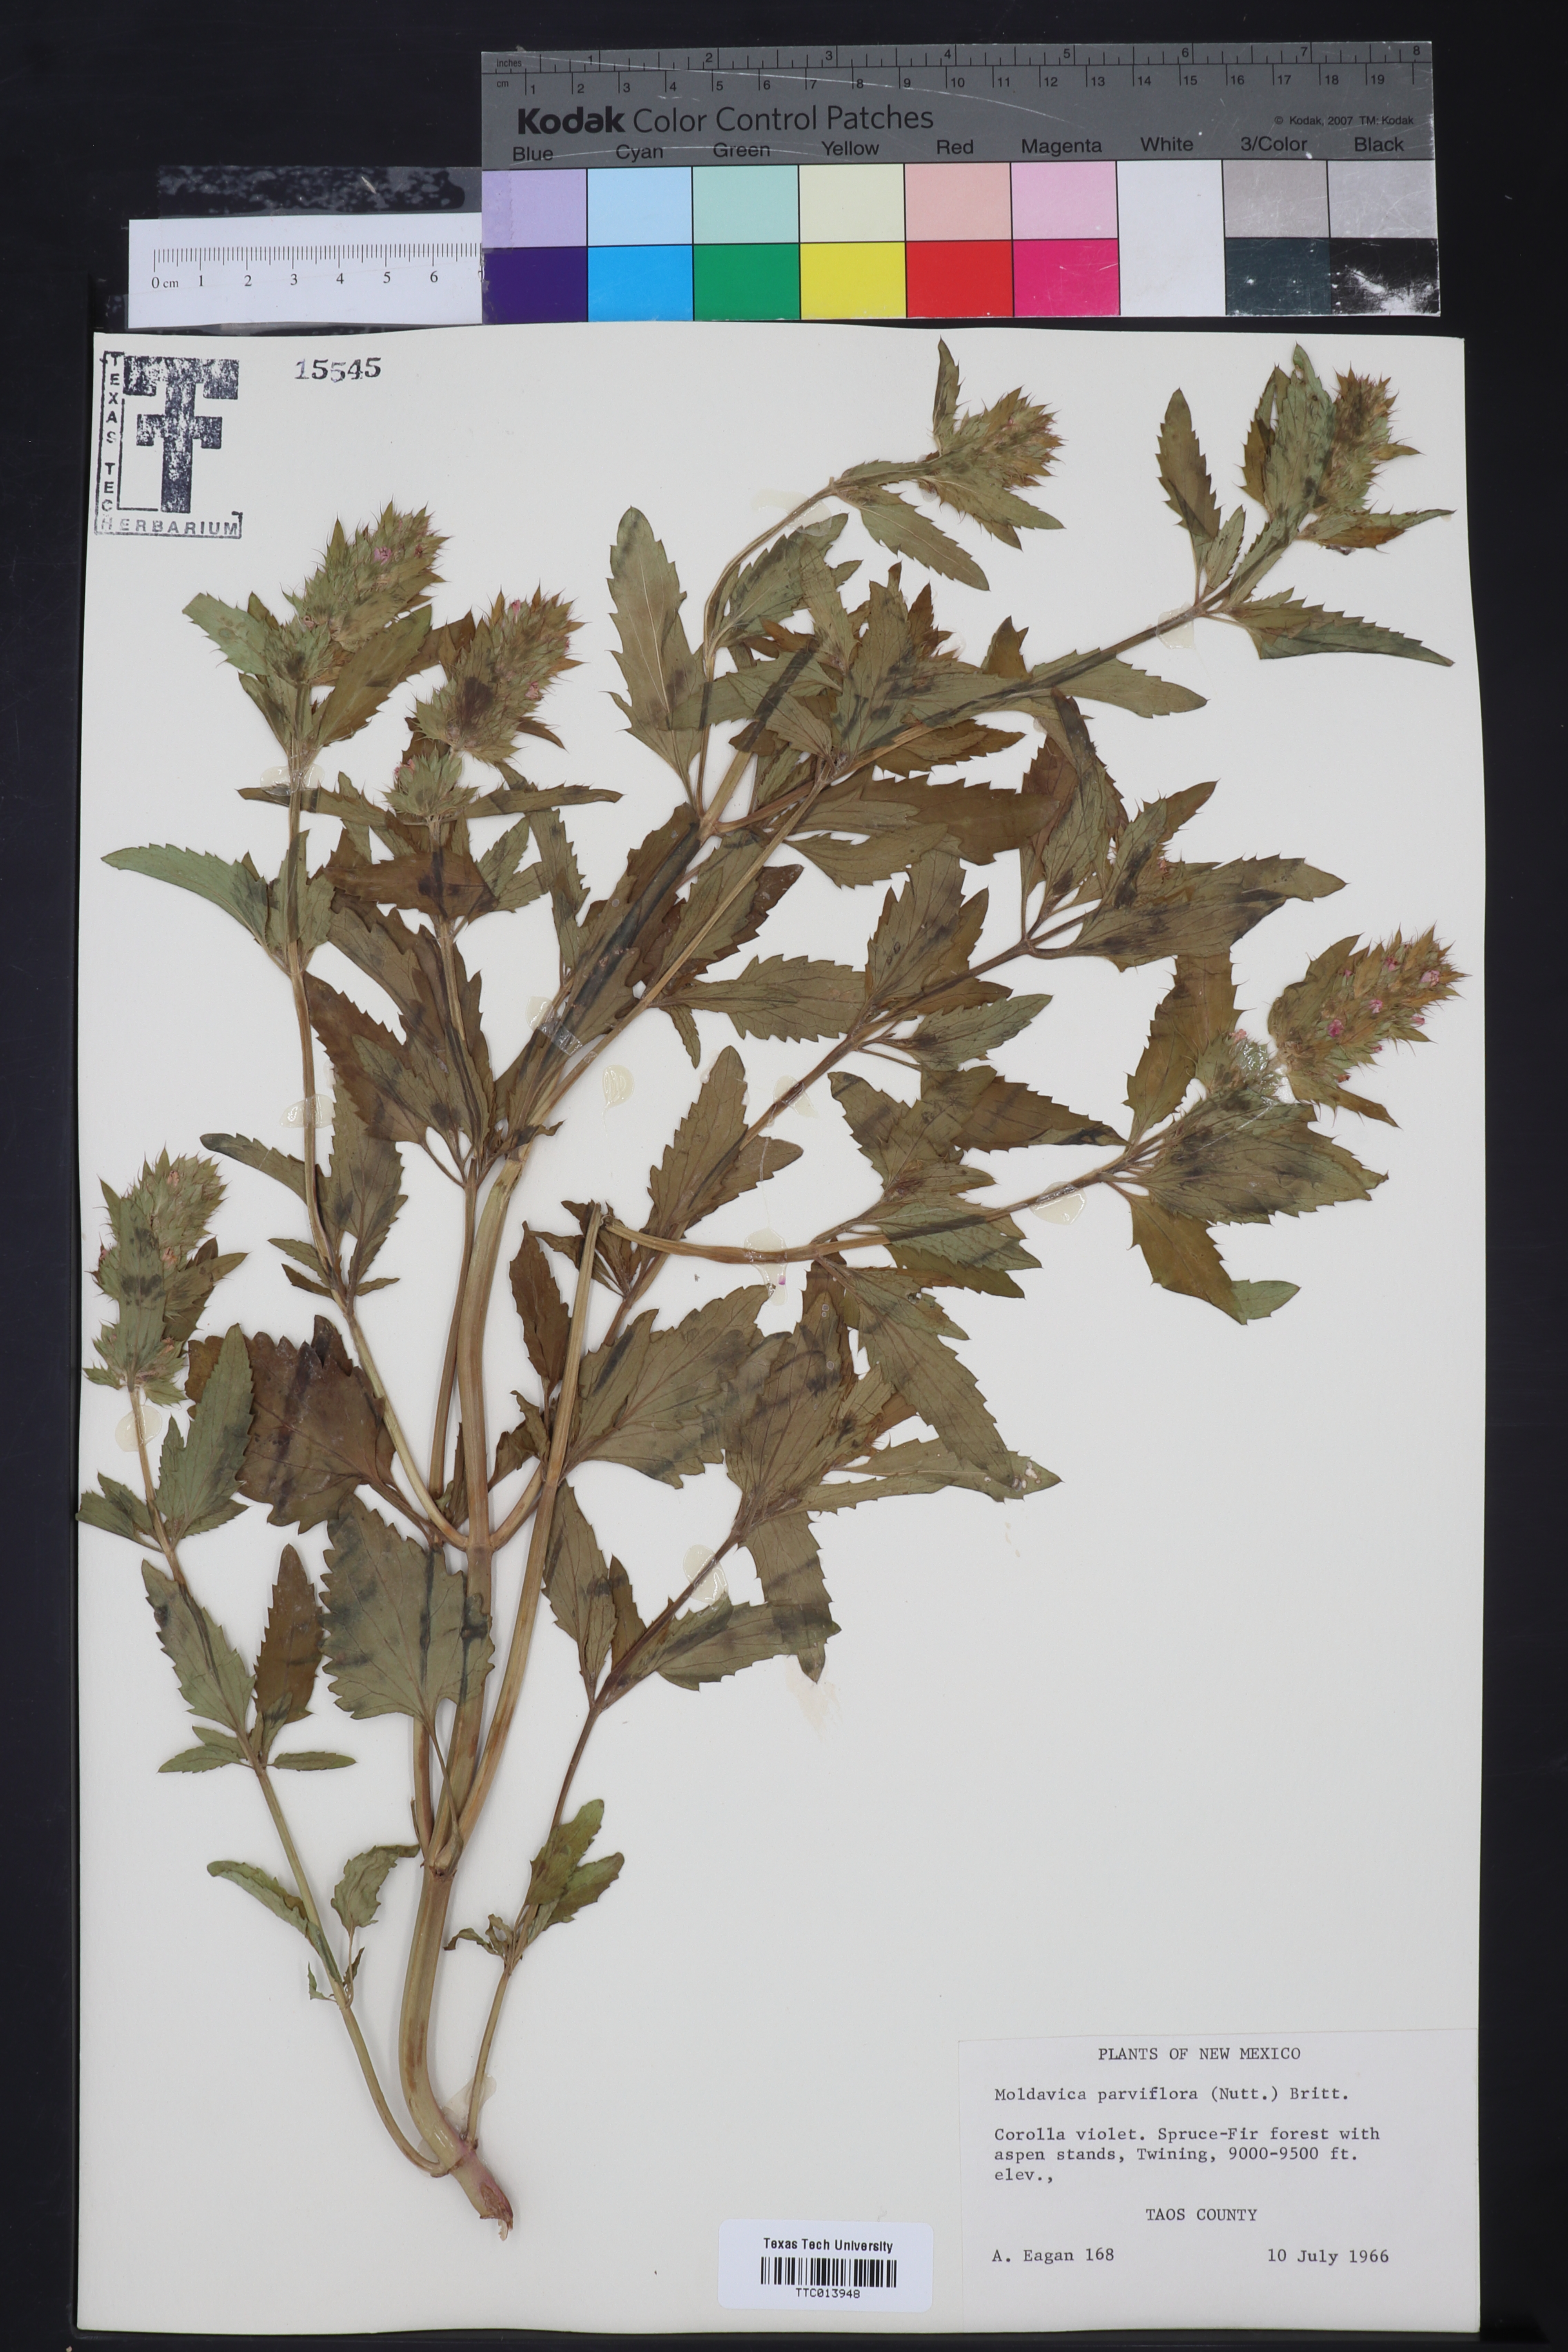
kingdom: Plantae
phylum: Tracheophyta
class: Magnoliopsida
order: Lamiales
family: Lamiaceae
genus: Physostegia
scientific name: Physostegia parviflora
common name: American dragonhead
